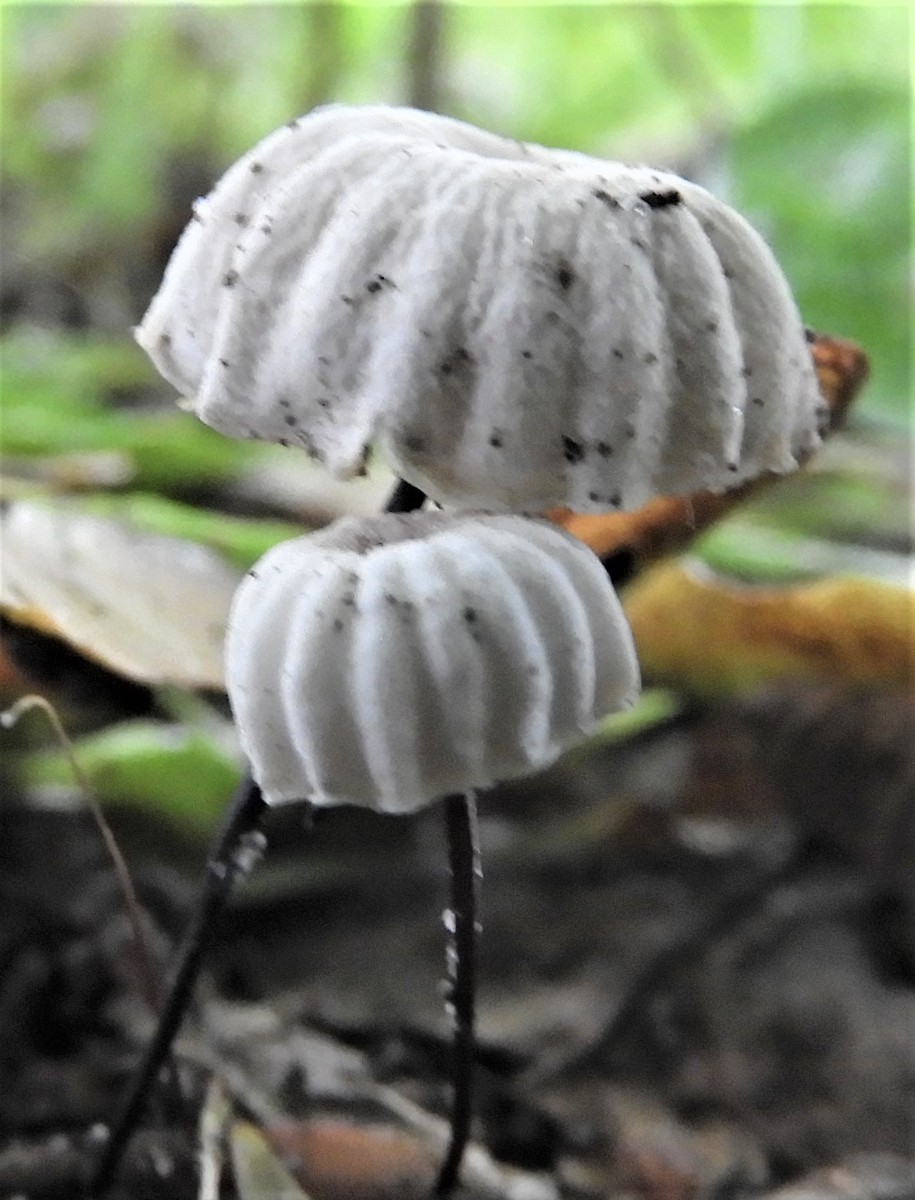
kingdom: Fungi
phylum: Basidiomycota
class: Agaricomycetes
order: Agaricales
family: Marasmiaceae
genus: Marasmius
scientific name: Marasmius rotula
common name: hjul-bruskhat
